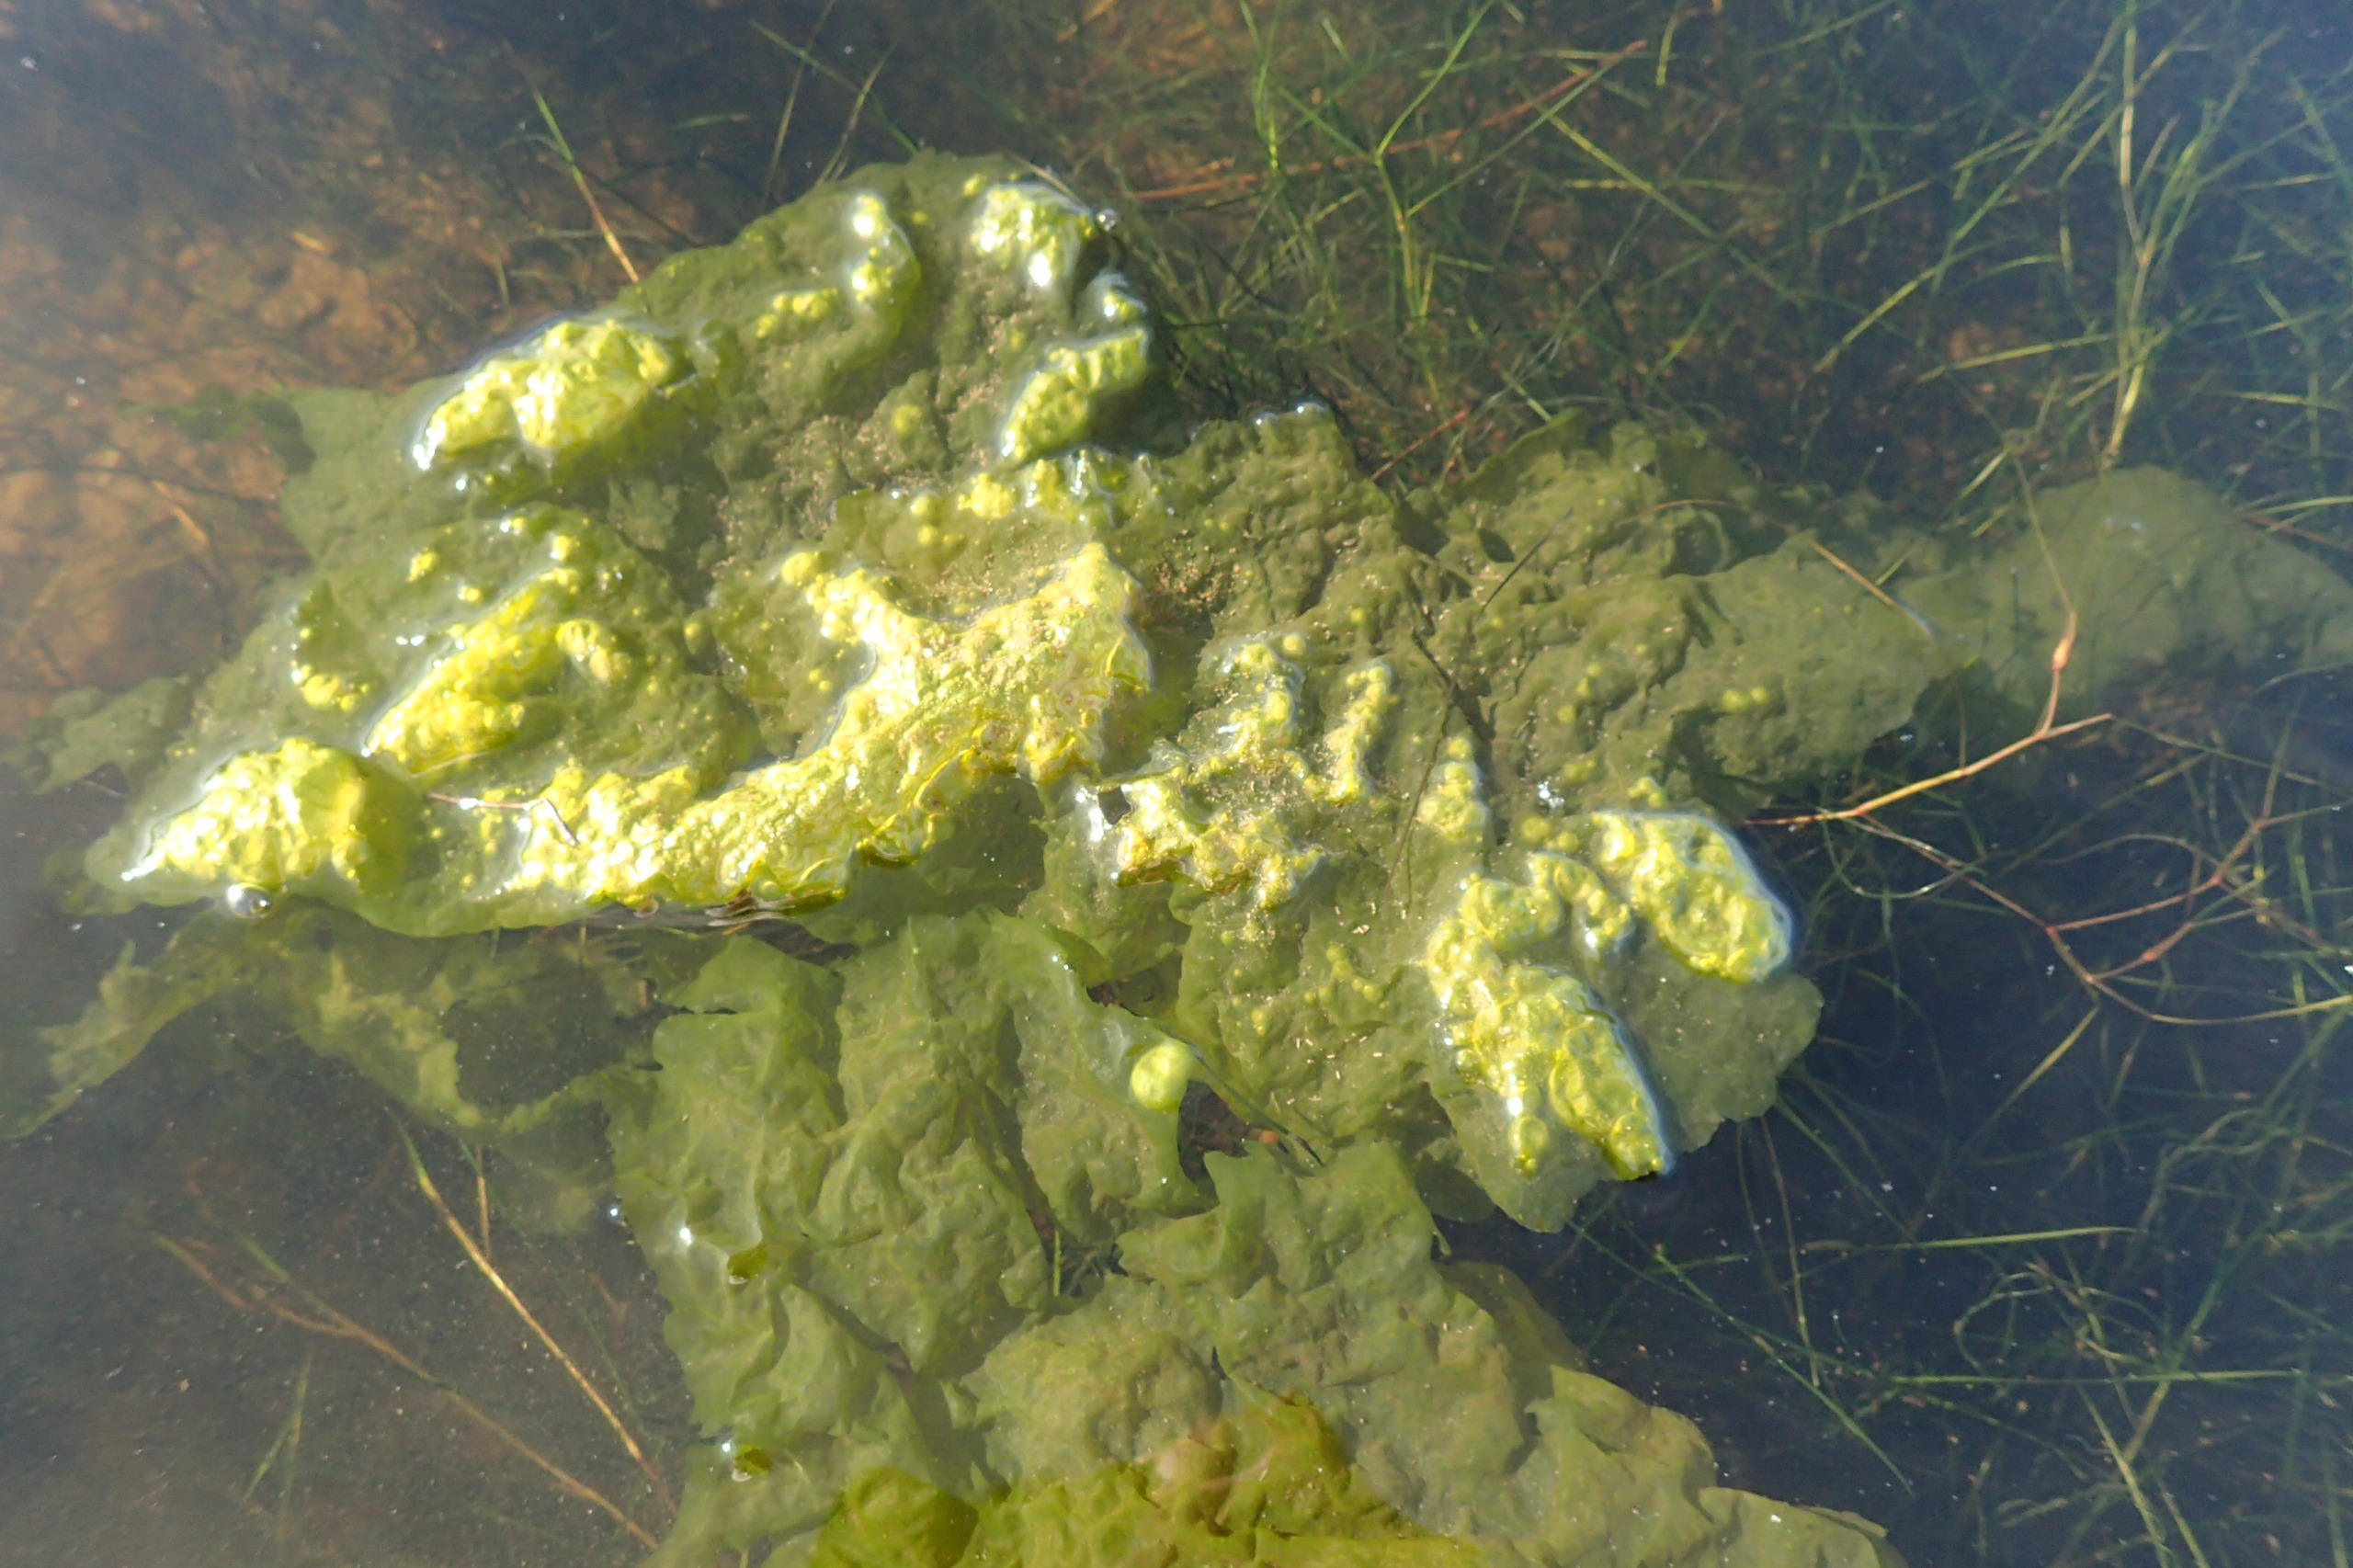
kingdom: Plantae
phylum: Chlorophyta
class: Ulvophyceae
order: Ulvales
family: Ulvaceae
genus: Ulva
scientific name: Ulva fenestrata
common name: Søsalat
